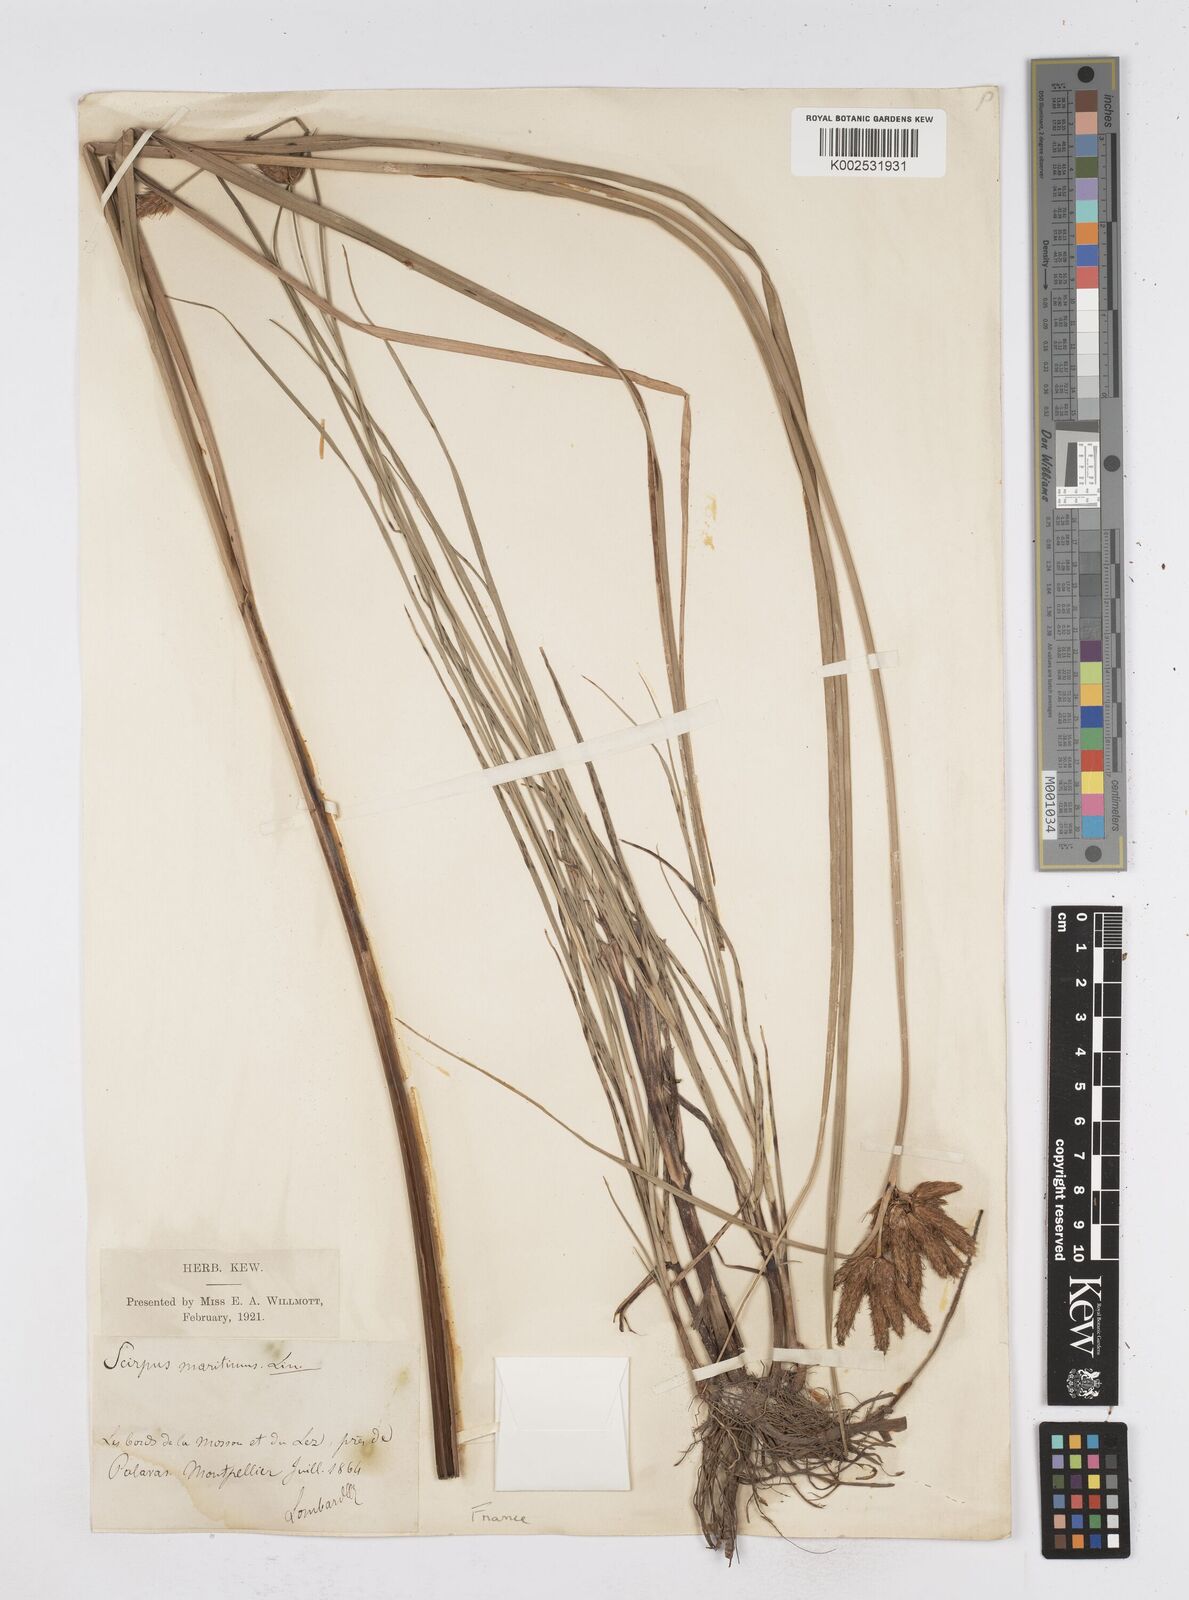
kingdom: Plantae
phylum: Tracheophyta
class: Liliopsida
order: Poales
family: Cyperaceae
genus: Bolboschoenus
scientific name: Bolboschoenus maritimus
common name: Sea club-rush
